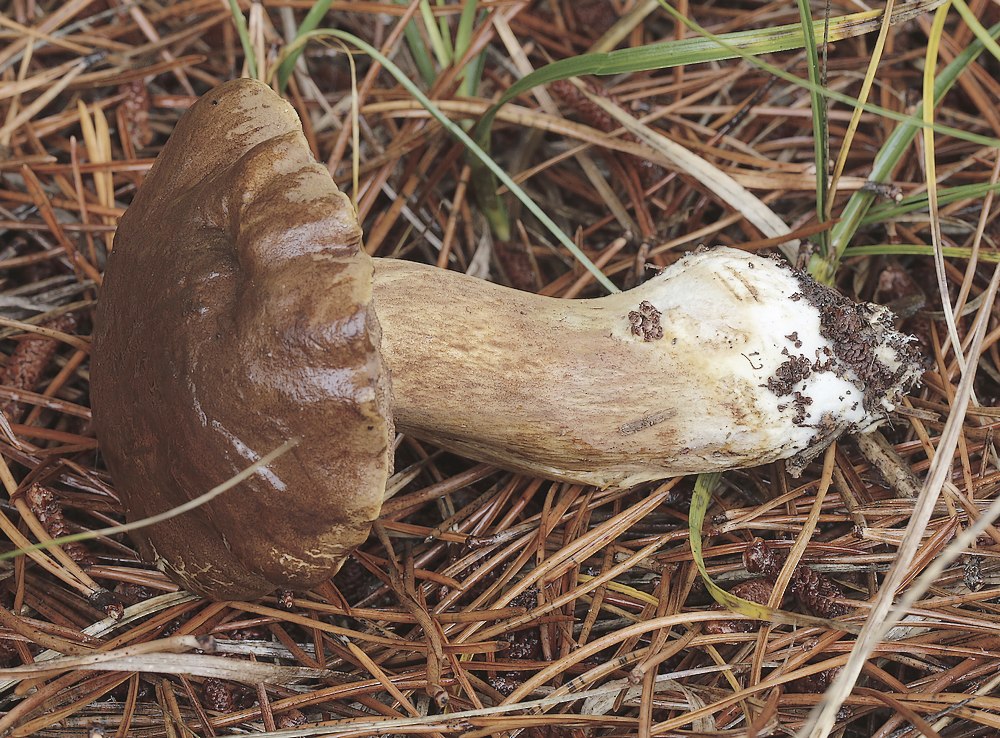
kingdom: Fungi
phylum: Basidiomycota
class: Agaricomycetes
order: Boletales
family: Boletaceae
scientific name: Boletaceae
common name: rørhatfamilien
